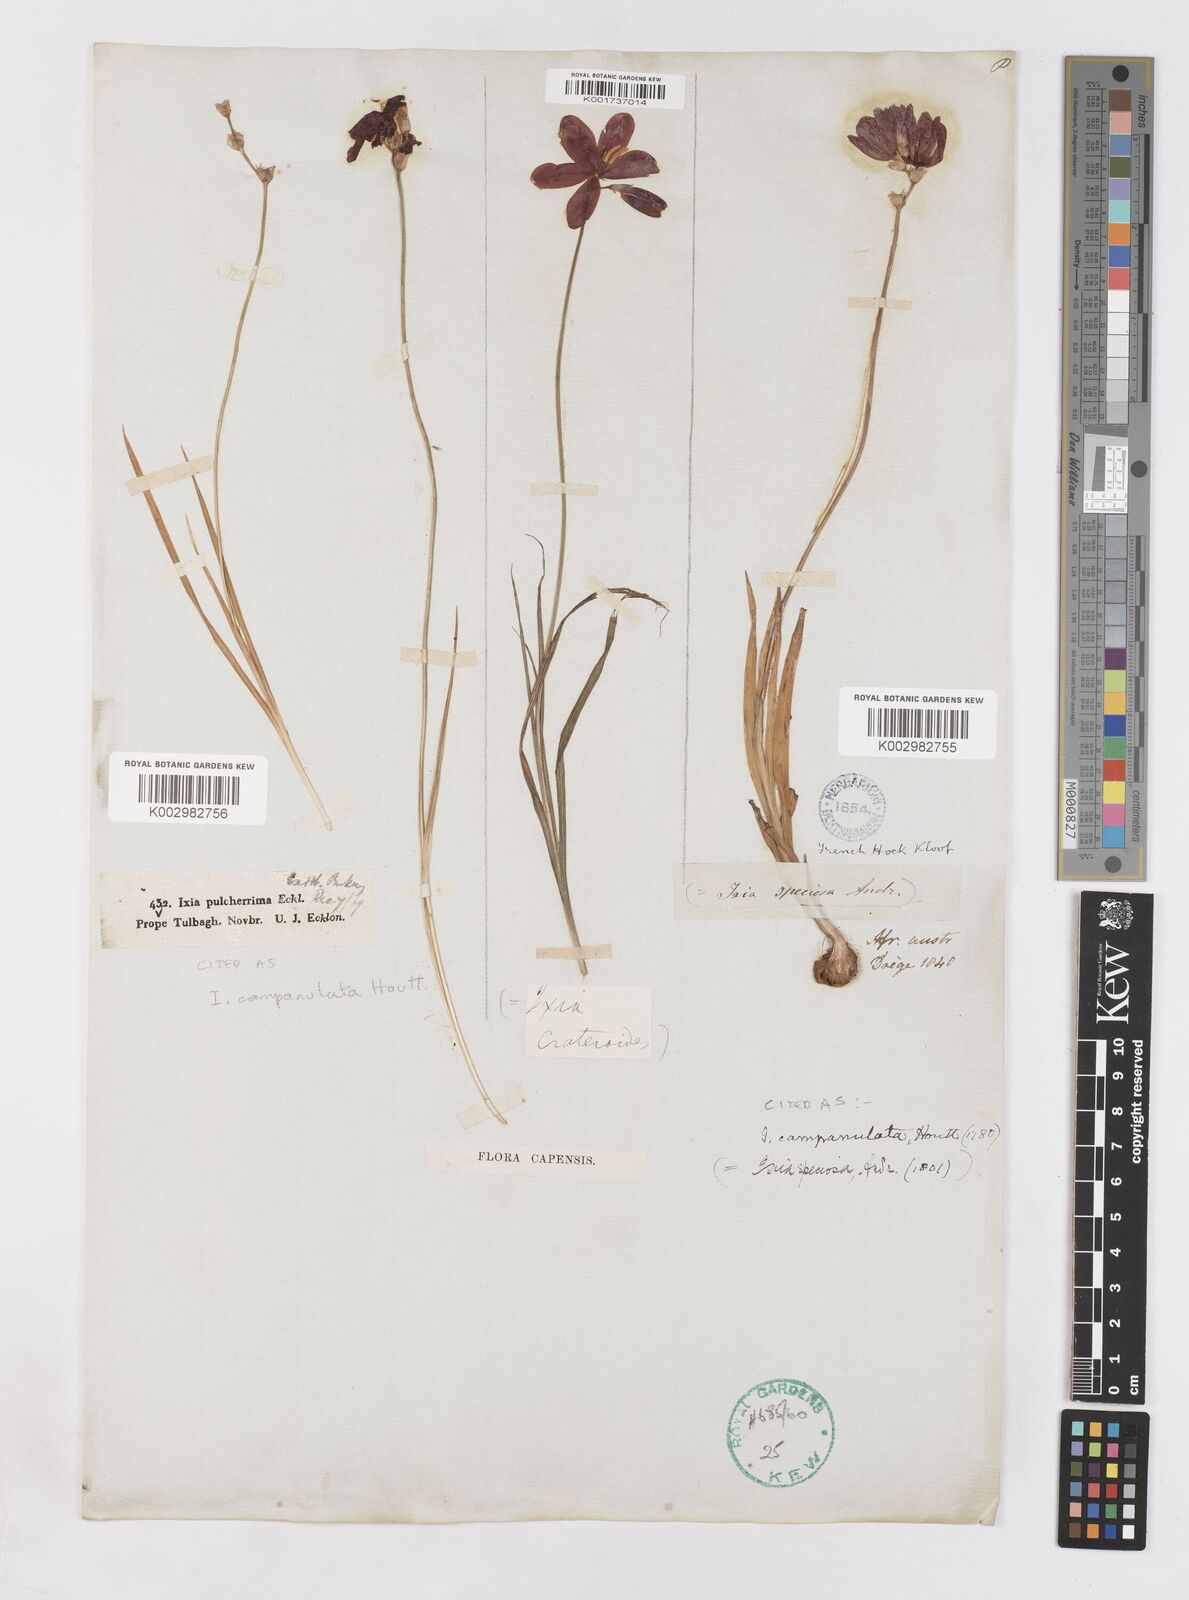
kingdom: Plantae
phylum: Tracheophyta
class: Liliopsida
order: Asparagales
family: Iridaceae
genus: Ixia
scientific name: Ixia campanulata
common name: Red corn-lily
